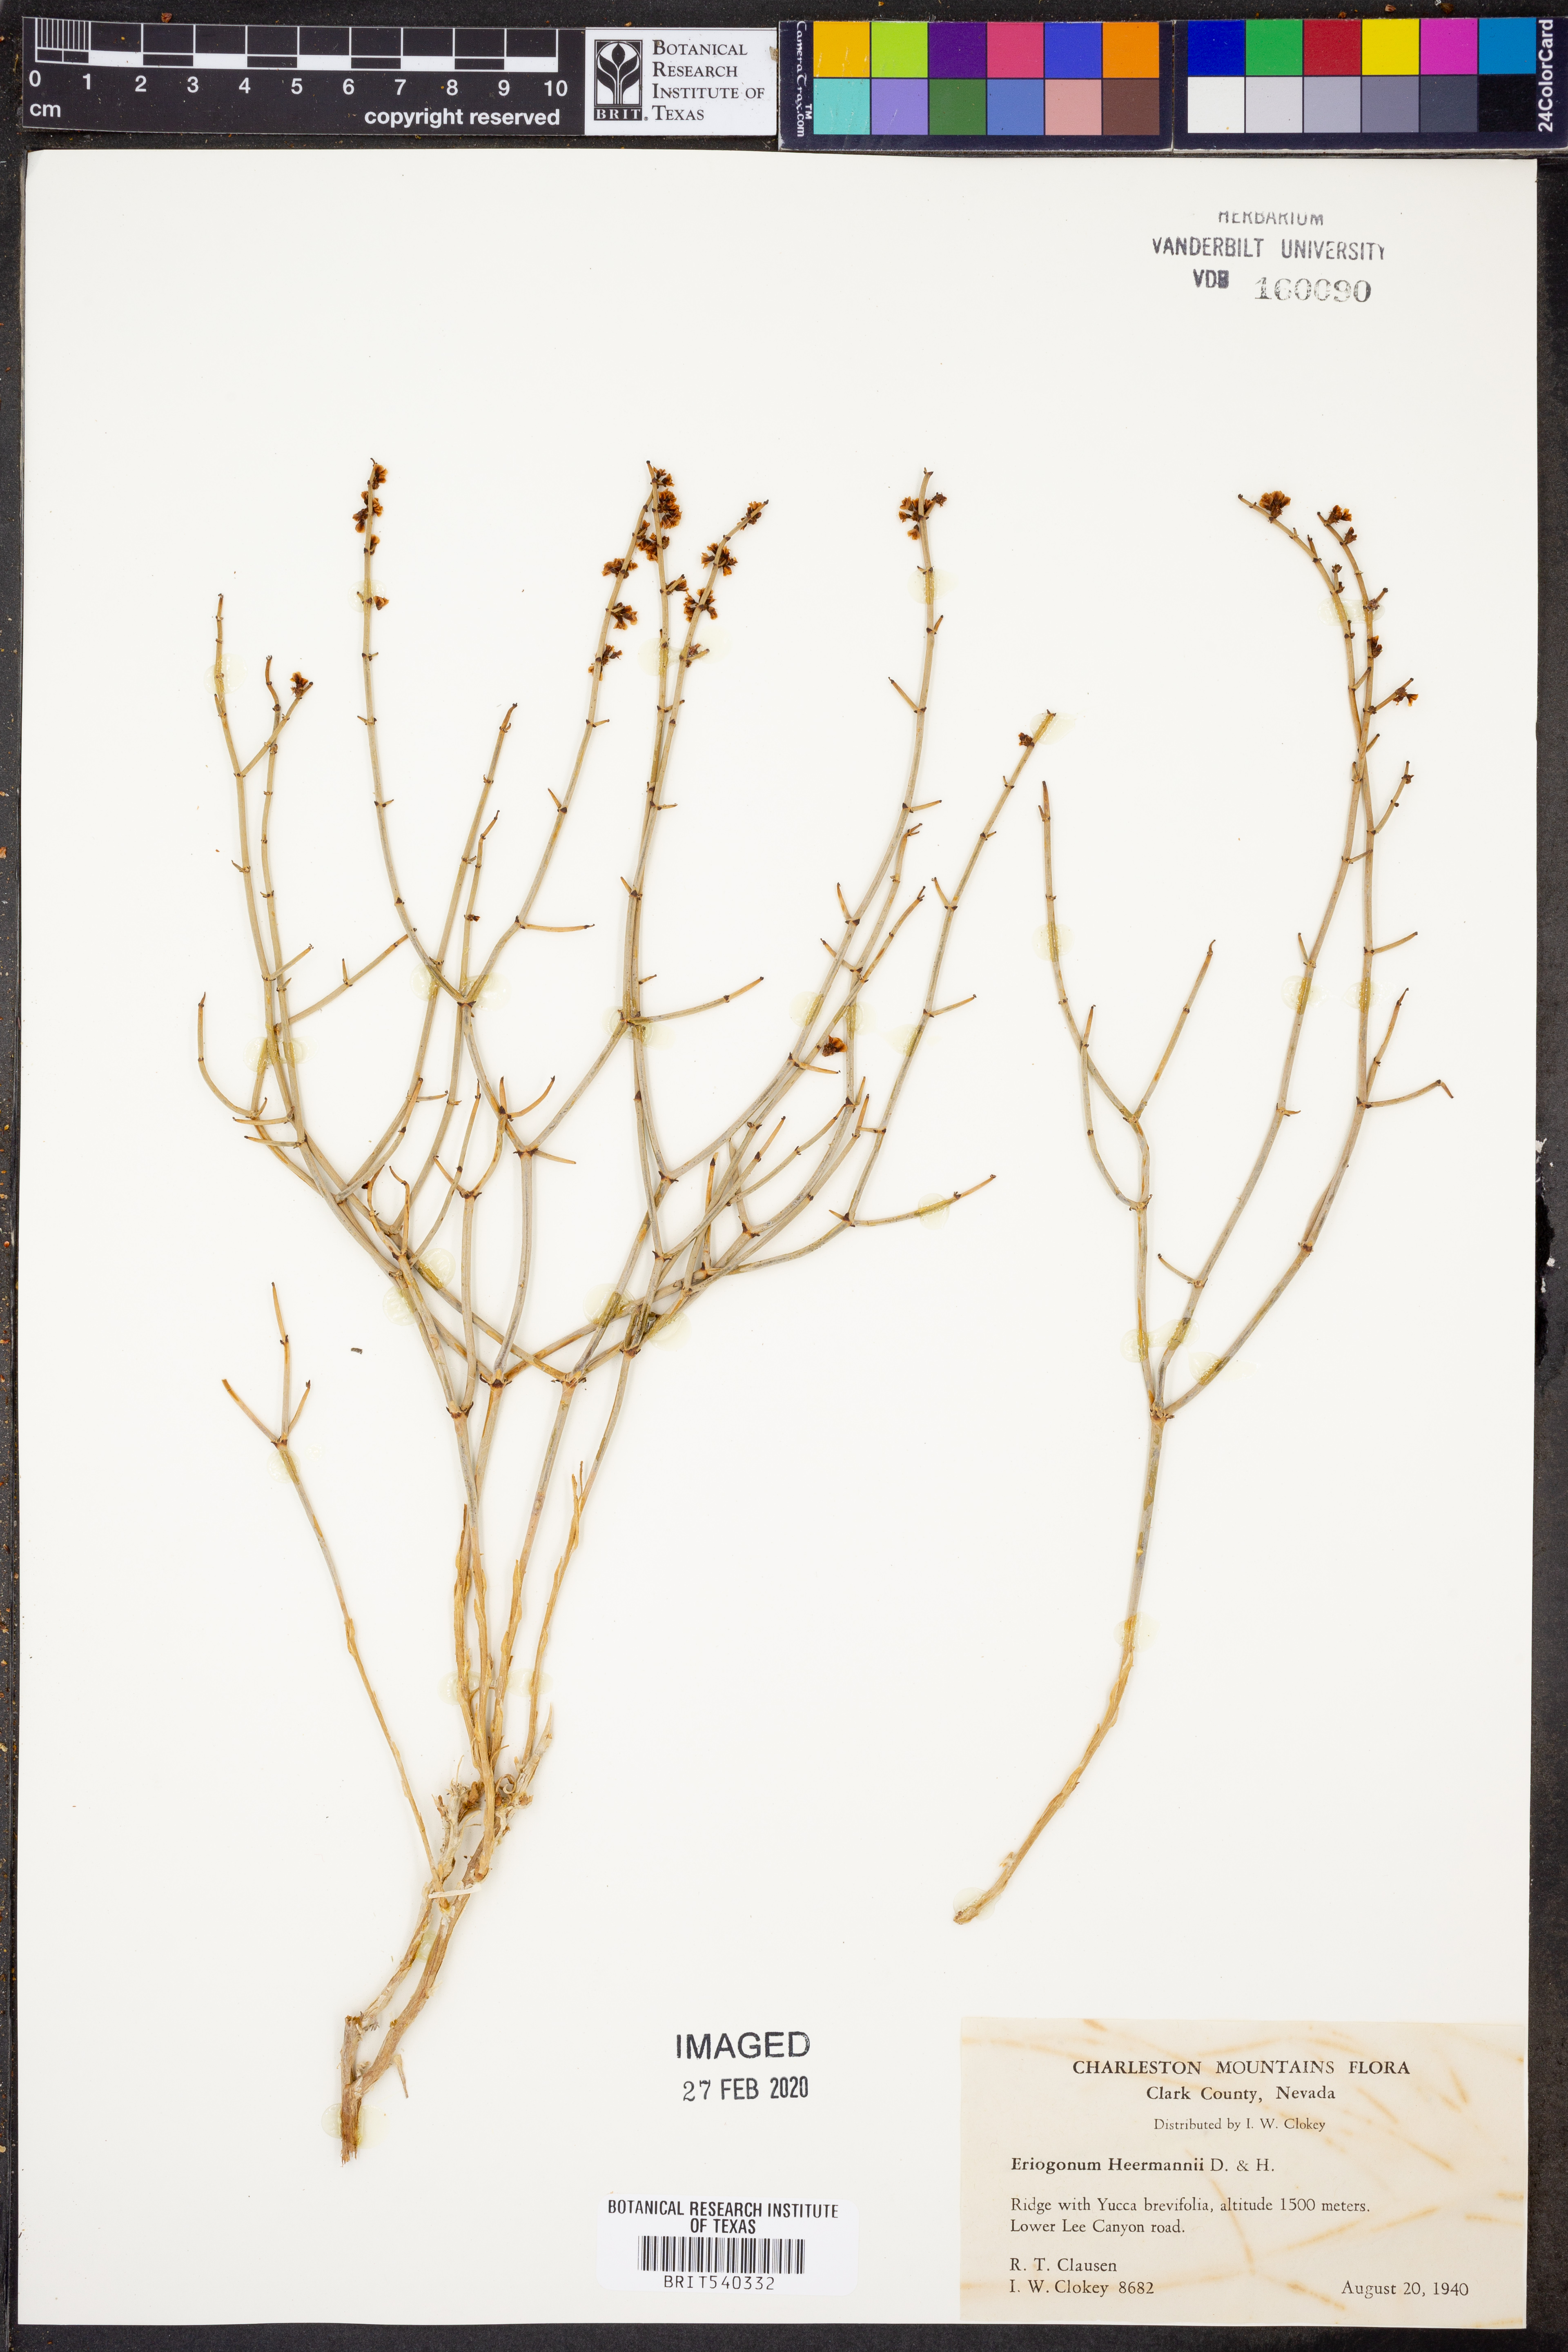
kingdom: Plantae
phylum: Tracheophyta
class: Magnoliopsida
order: Caryophyllales
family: Polygonaceae
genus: Eriogonum
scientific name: Eriogonum heermannii
